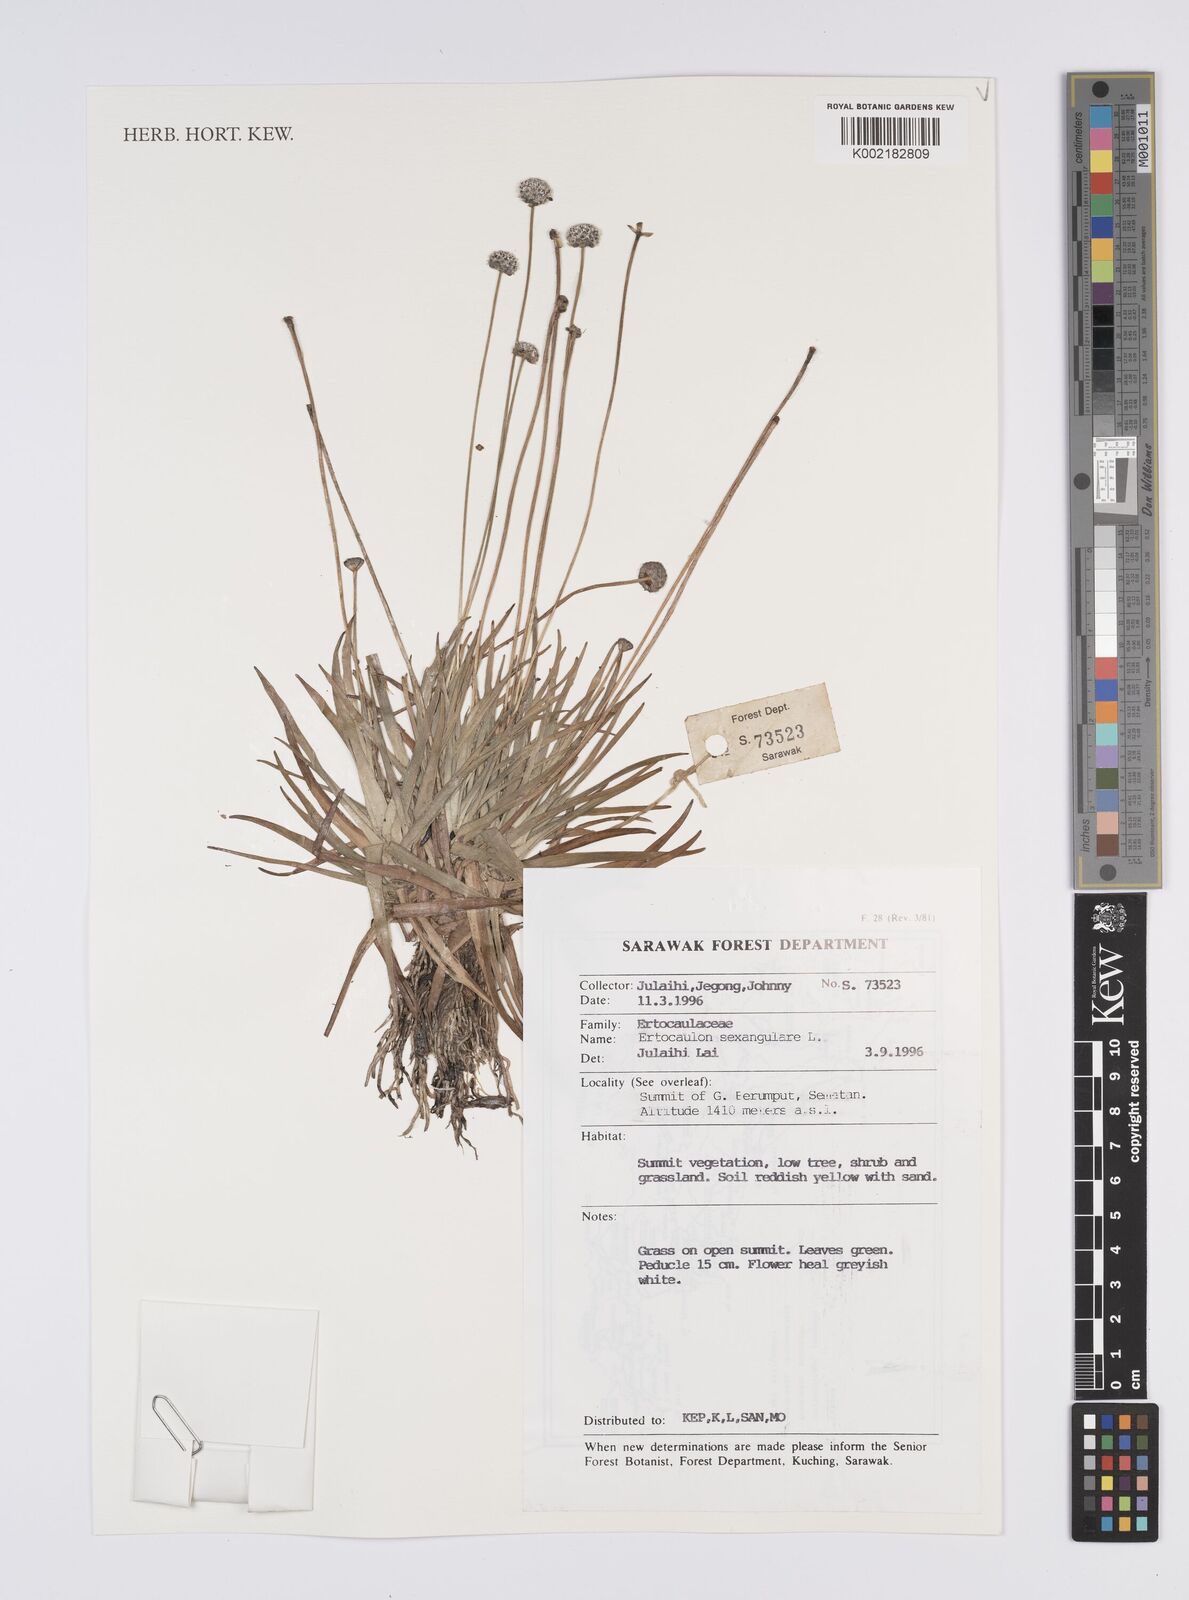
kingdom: Plantae
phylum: Tracheophyta
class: Liliopsida
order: Poales
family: Eriocaulaceae
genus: Eriocaulon
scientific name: Eriocaulon sexangulare
